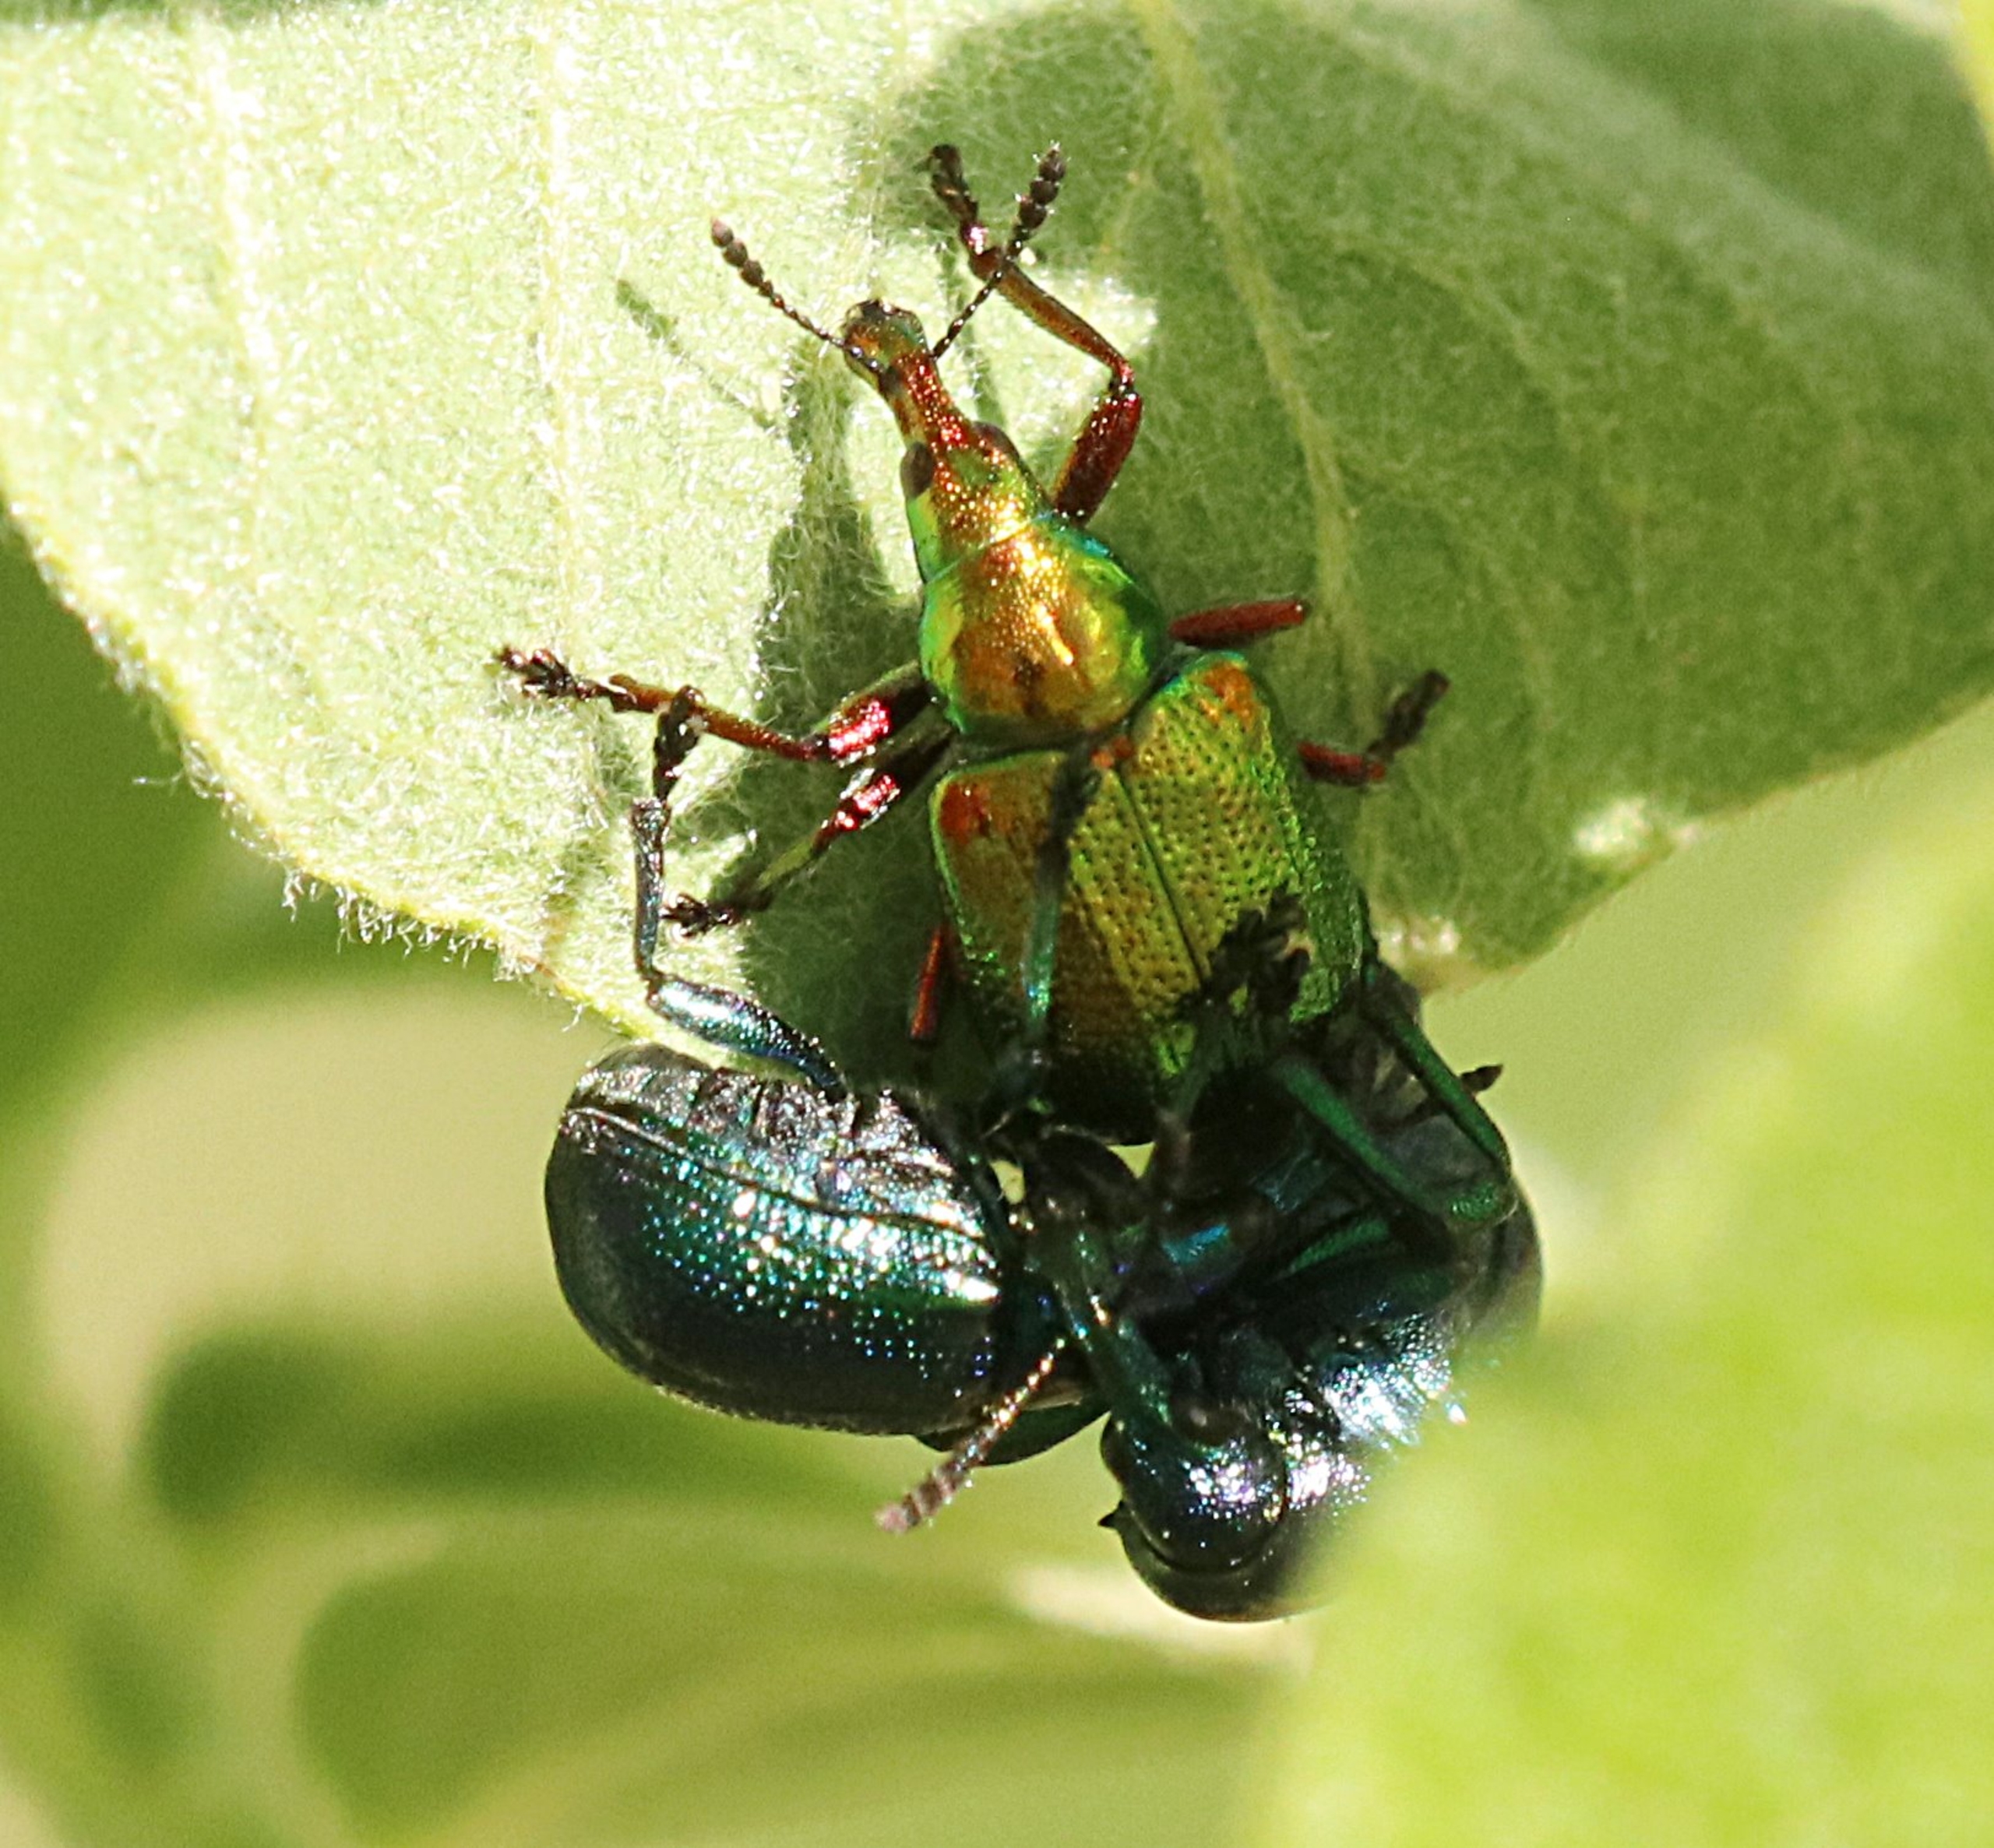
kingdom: Animalia
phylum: Arthropoda
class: Insecta
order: Coleoptera
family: Attelabidae
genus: Byctiscus
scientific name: Byctiscus betulae
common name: Cigarruller
